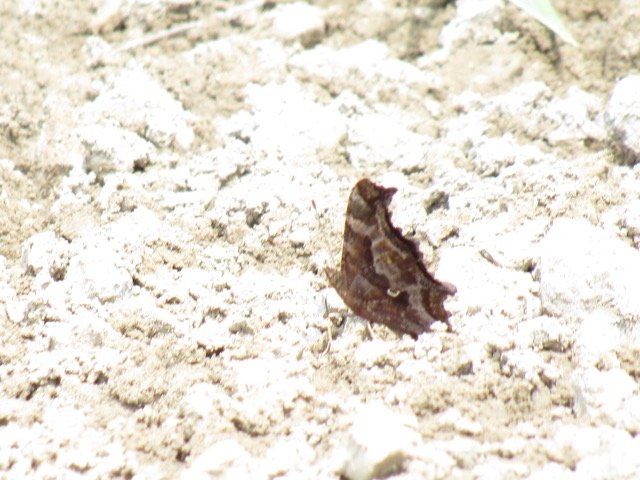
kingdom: Animalia
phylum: Arthropoda
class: Insecta
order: Lepidoptera
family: Nymphalidae
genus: Polygonia
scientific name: Polygonia comma
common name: Eastern Comma
